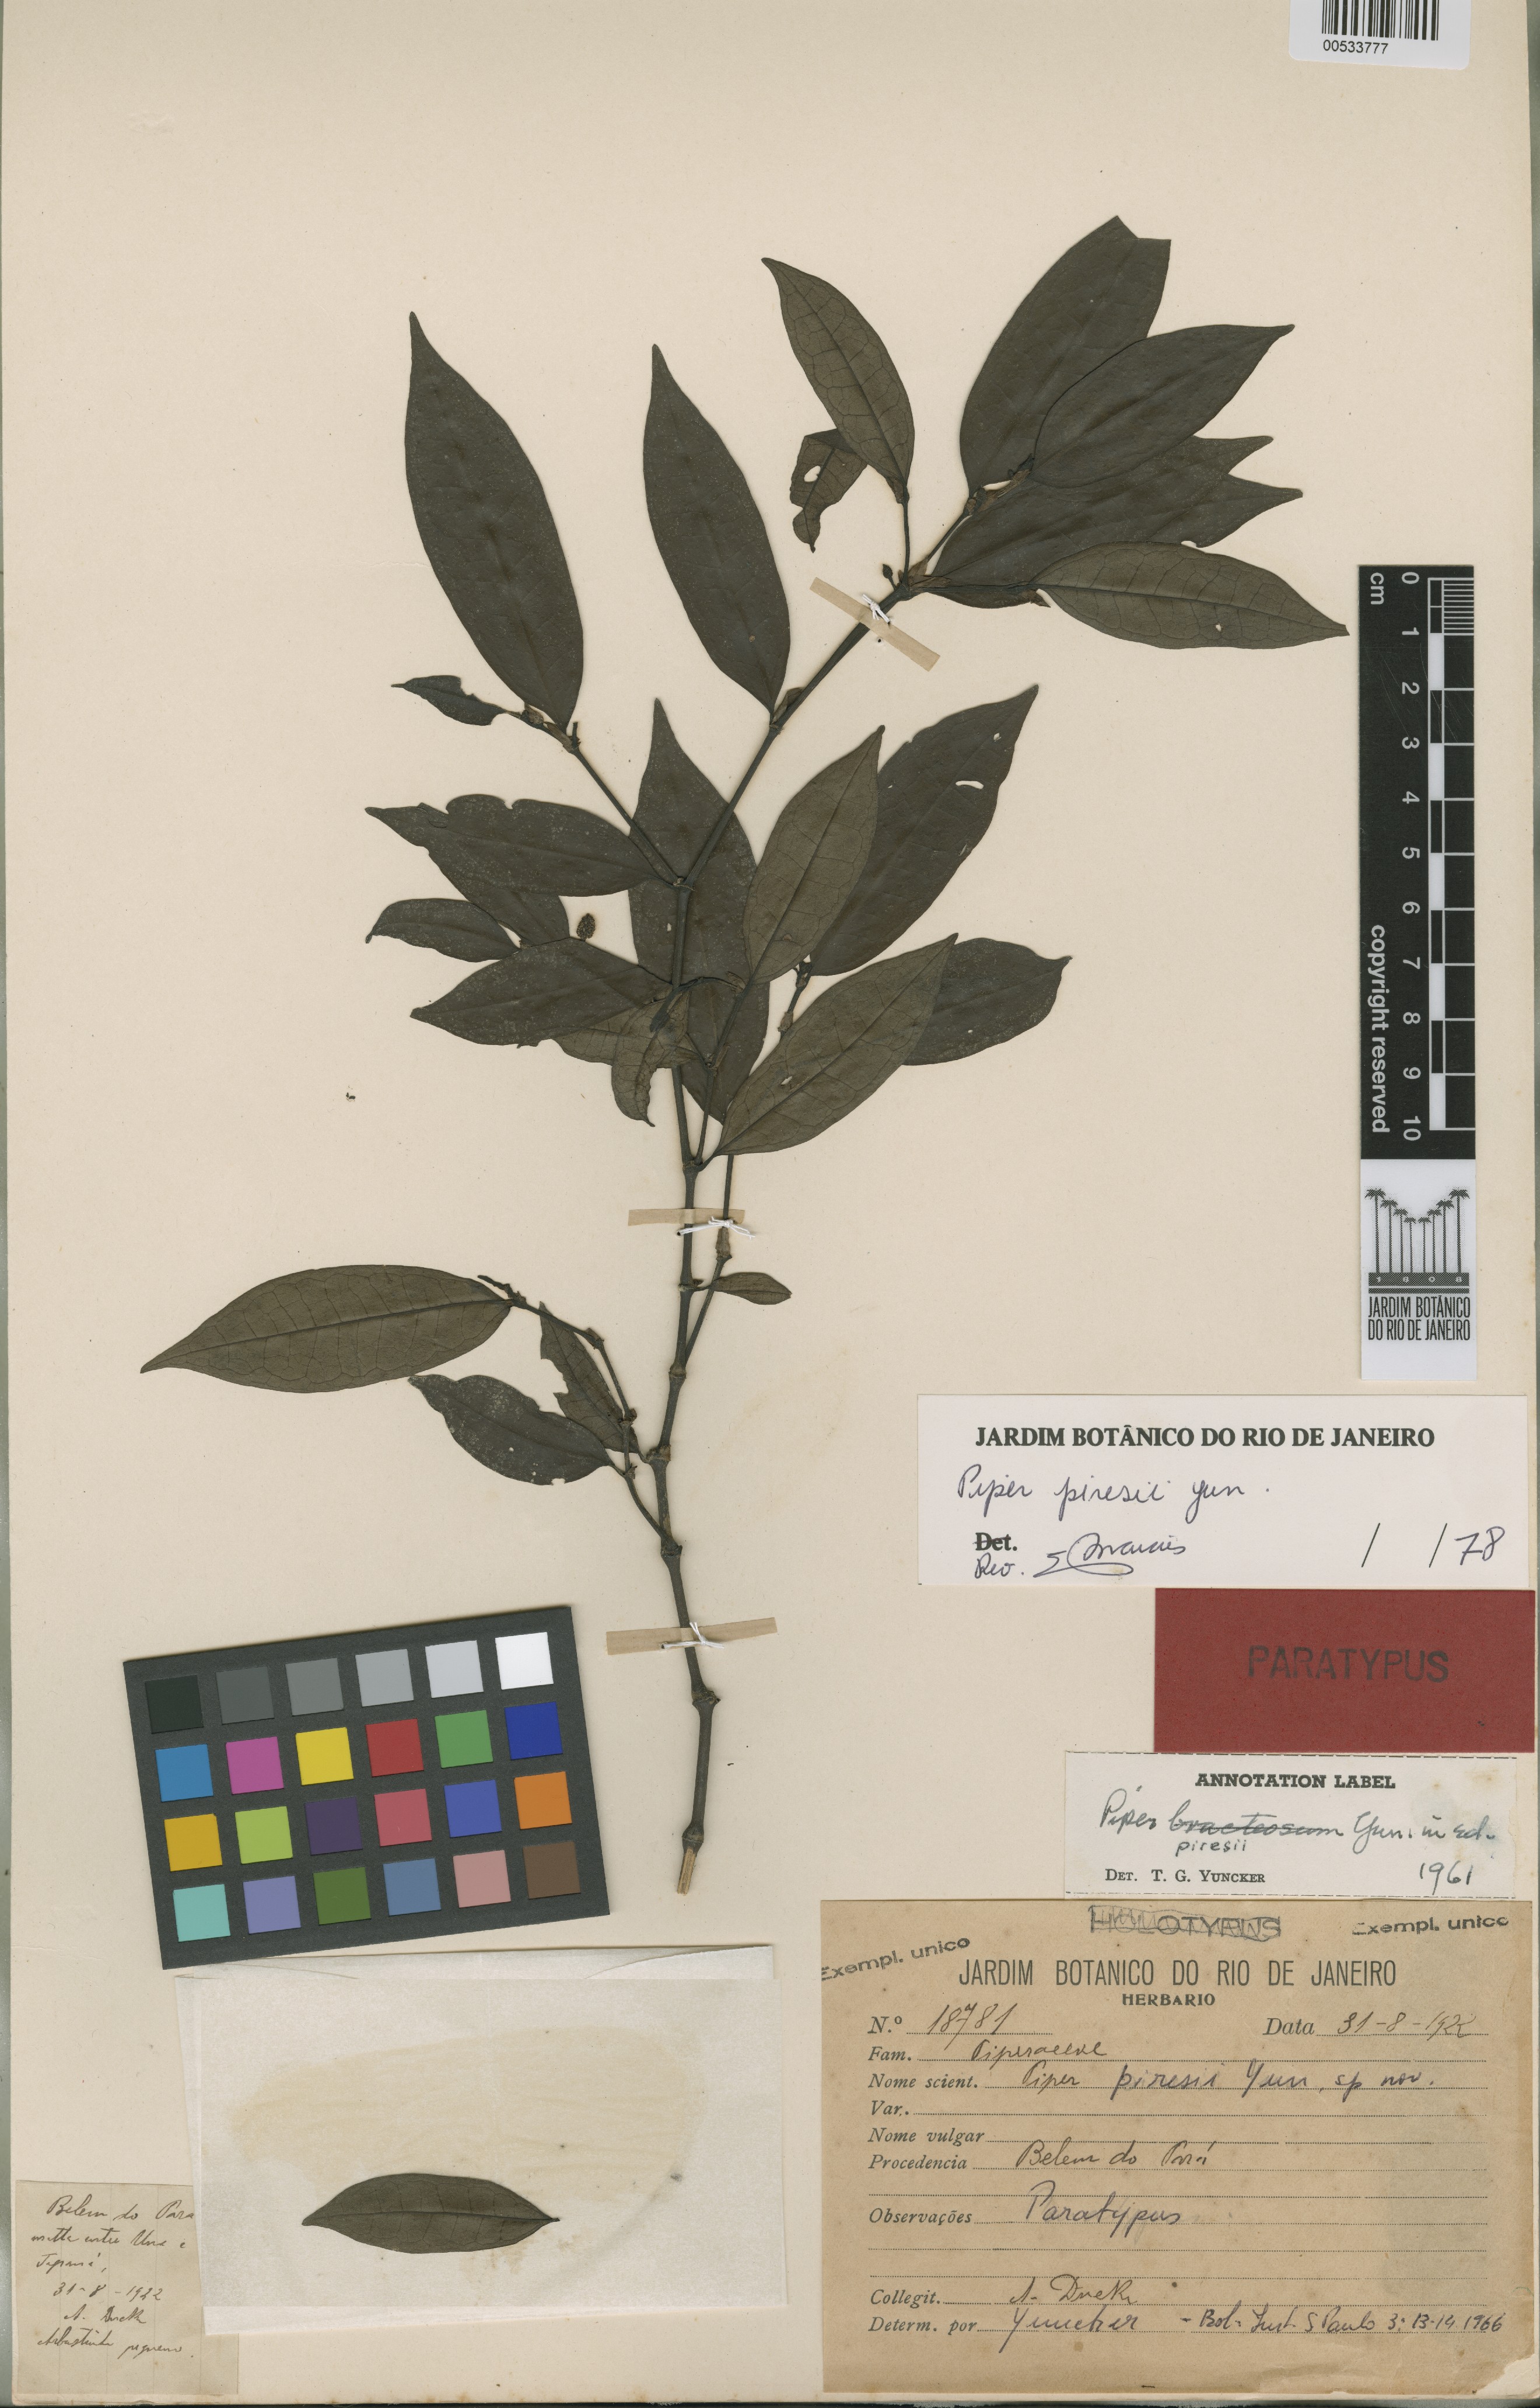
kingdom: Plantae
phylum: Tracheophyta
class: Magnoliopsida
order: Piperales
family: Piperaceae
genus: Piper
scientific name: Piper piresii
